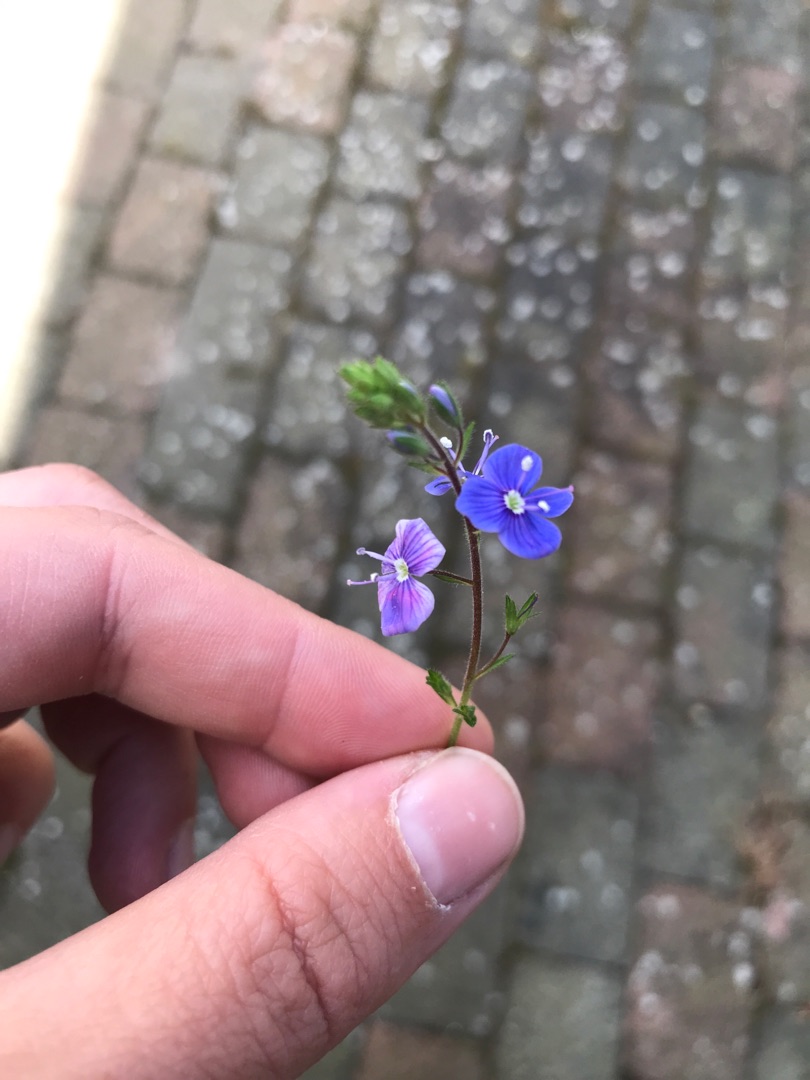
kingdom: Plantae
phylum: Tracheophyta
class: Magnoliopsida
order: Lamiales
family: Plantaginaceae
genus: Veronica
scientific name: Veronica chamaedrys
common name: Tveskægget ærenpris
